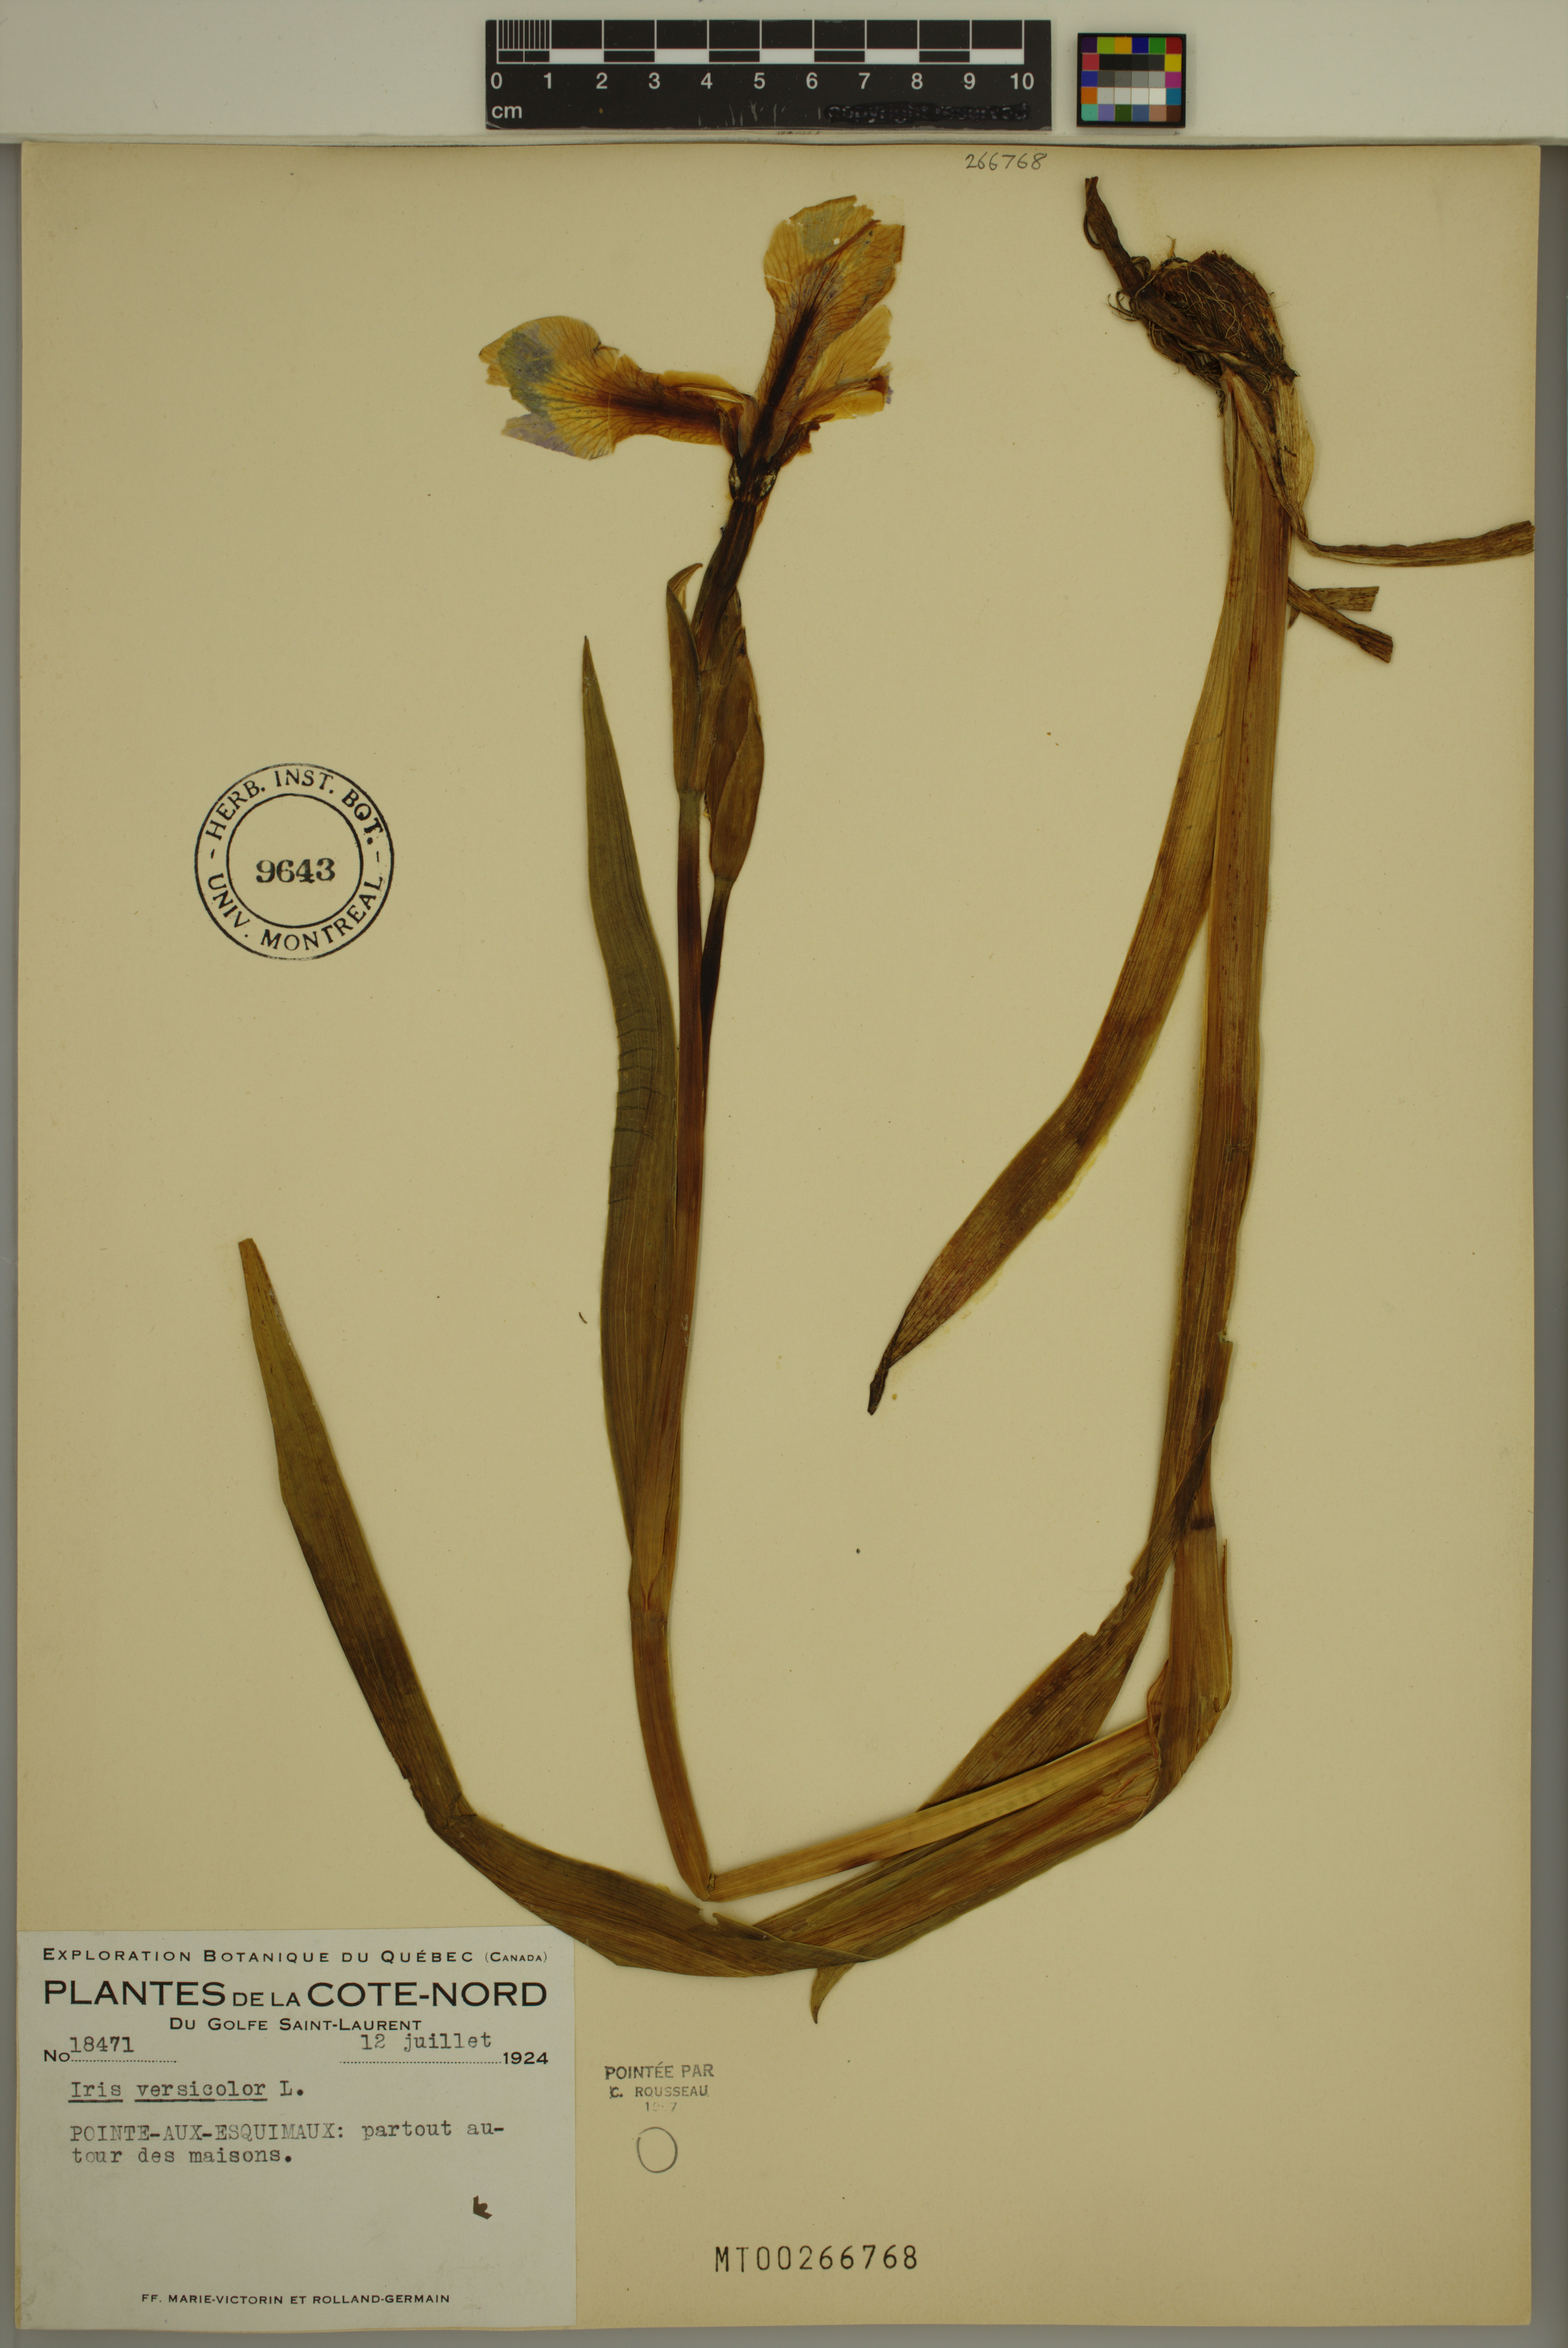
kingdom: Plantae
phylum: Tracheophyta
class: Liliopsida
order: Asparagales
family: Iridaceae
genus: Iris
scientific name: Iris versicolor
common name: Purple iris
